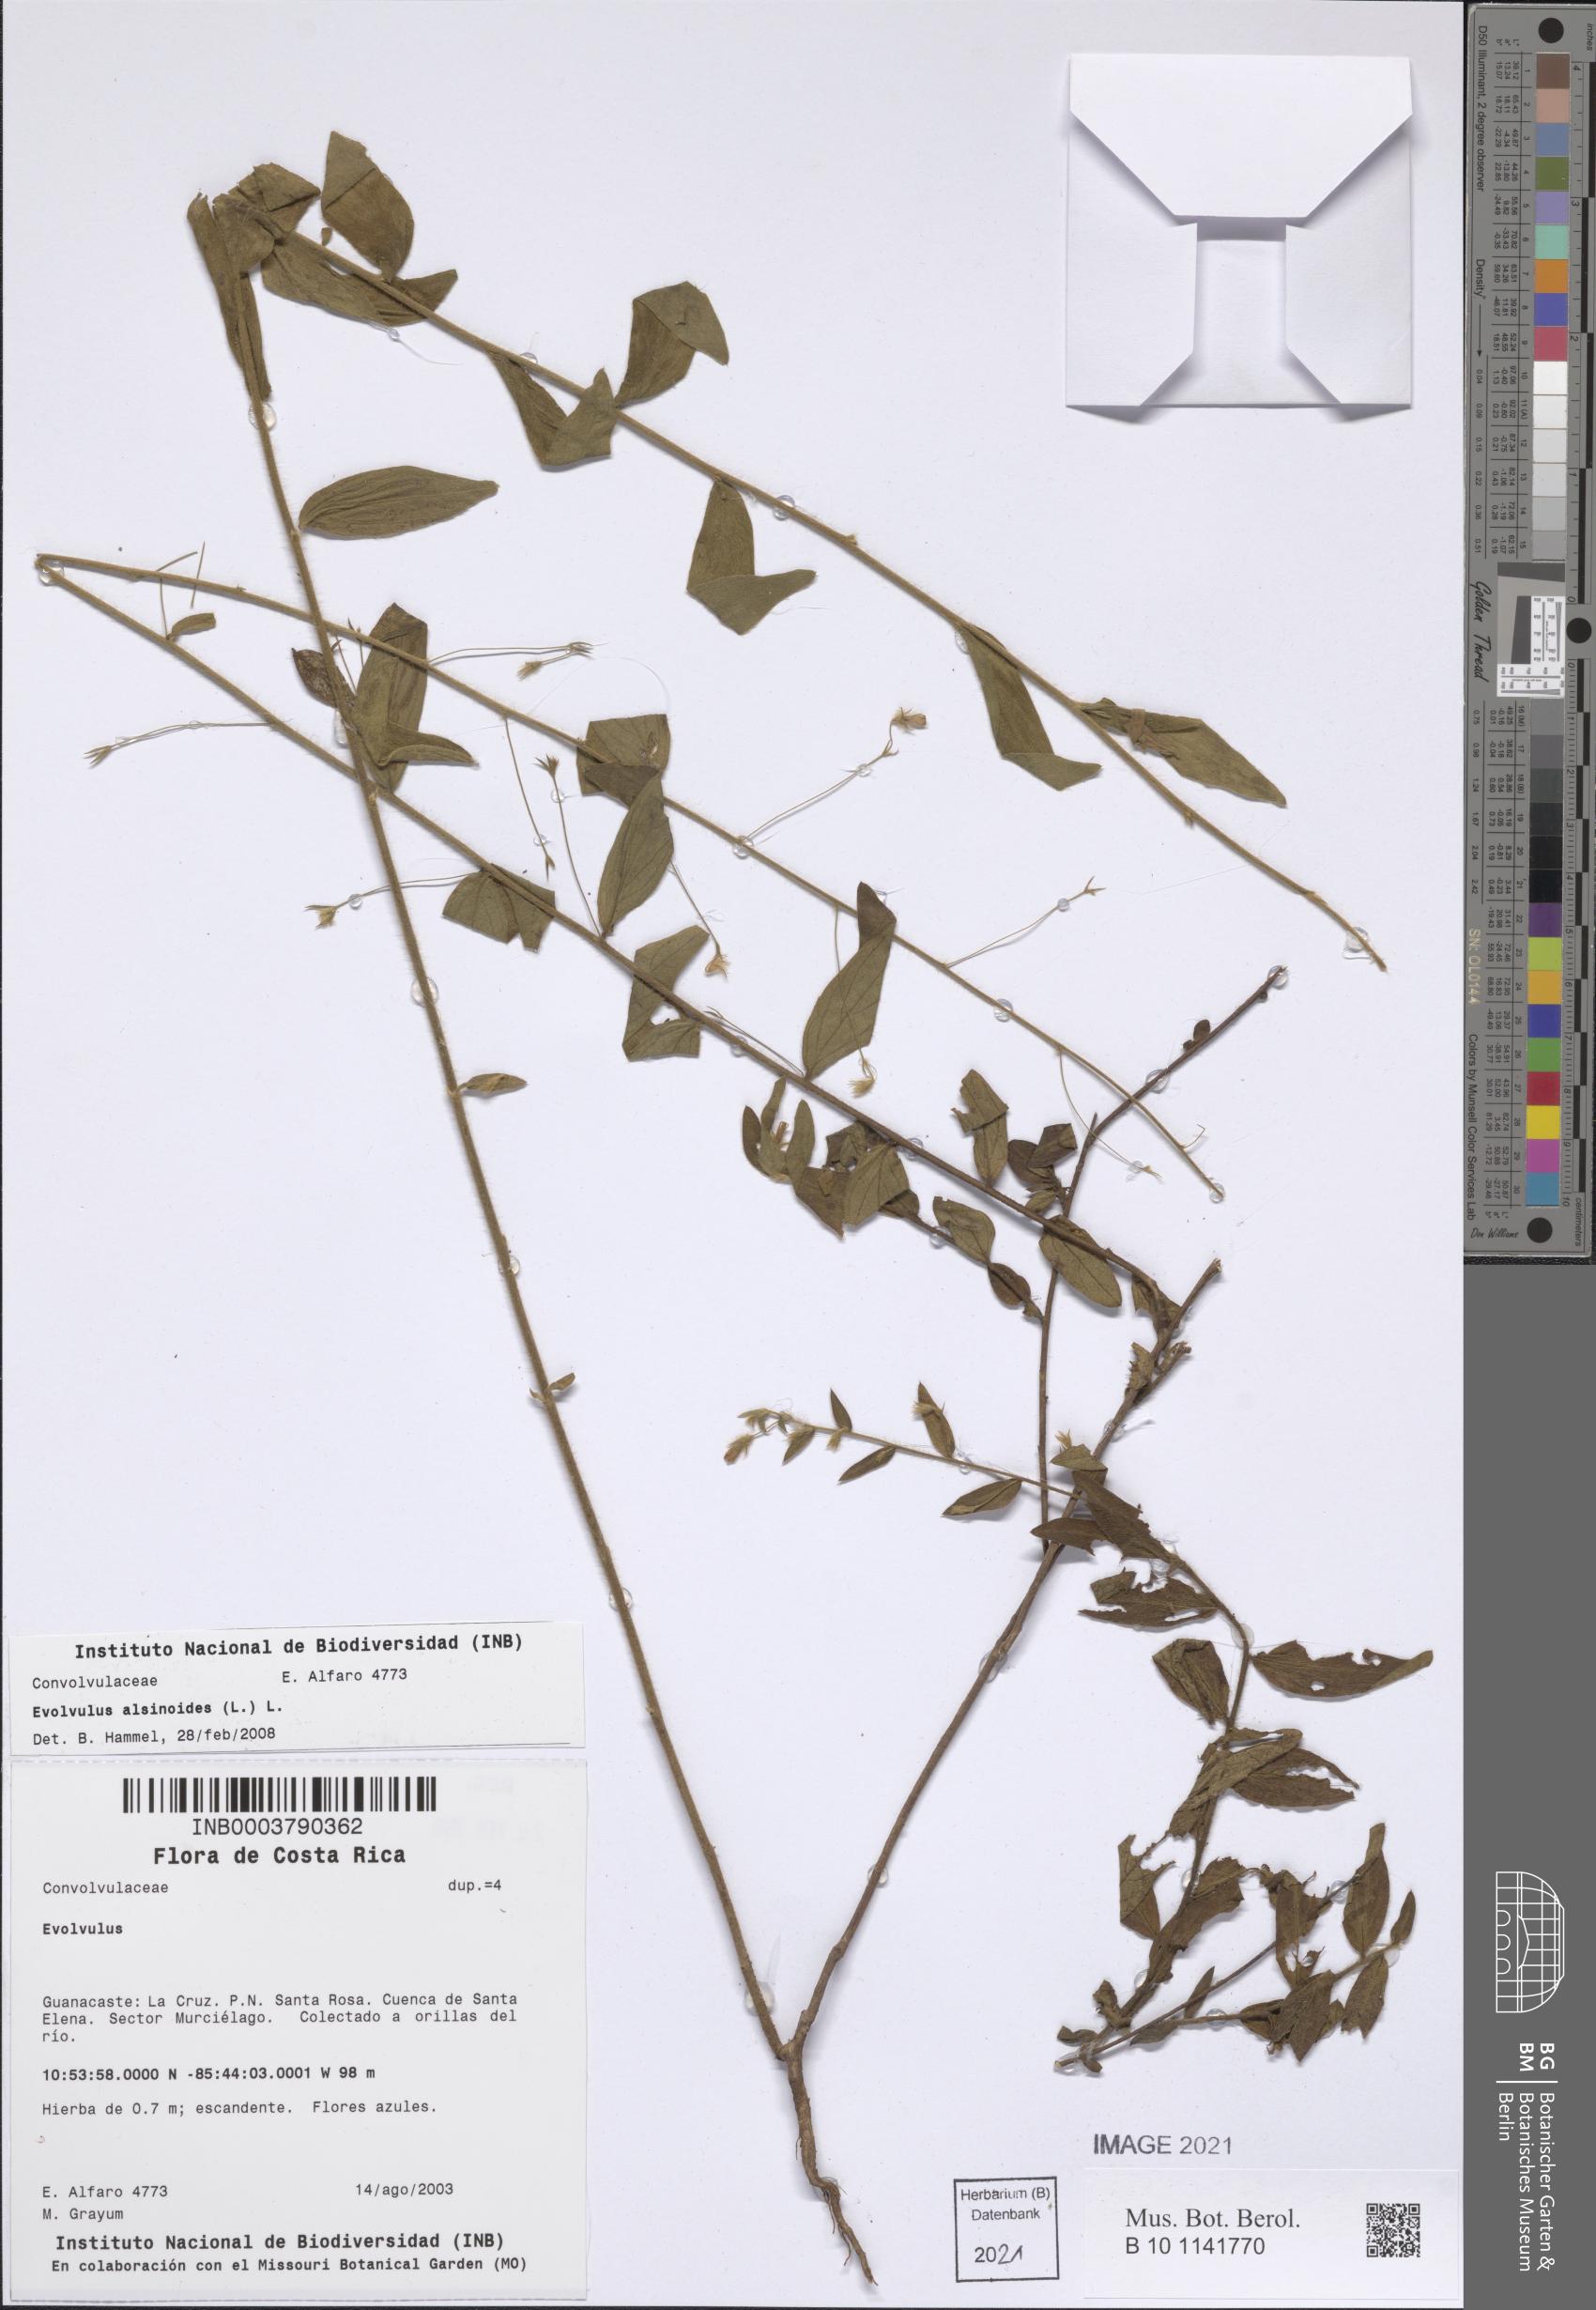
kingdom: Plantae
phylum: Tracheophyta
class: Magnoliopsida
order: Solanales
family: Convolvulaceae
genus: Evolvulus
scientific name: Evolvulus alsinoides
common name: Slender dwarf morning-glory
